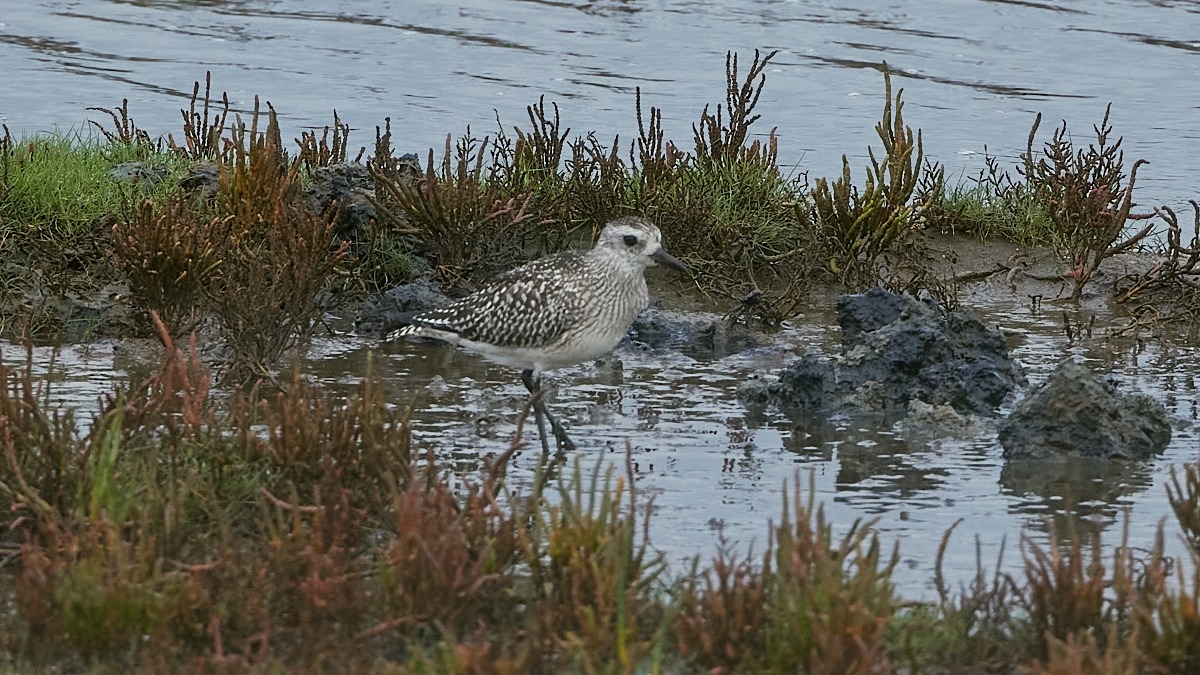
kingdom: Animalia
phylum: Chordata
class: Aves
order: Charadriiformes
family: Charadriidae
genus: Pluvialis
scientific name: Pluvialis squatarola
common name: Strandhjejle
